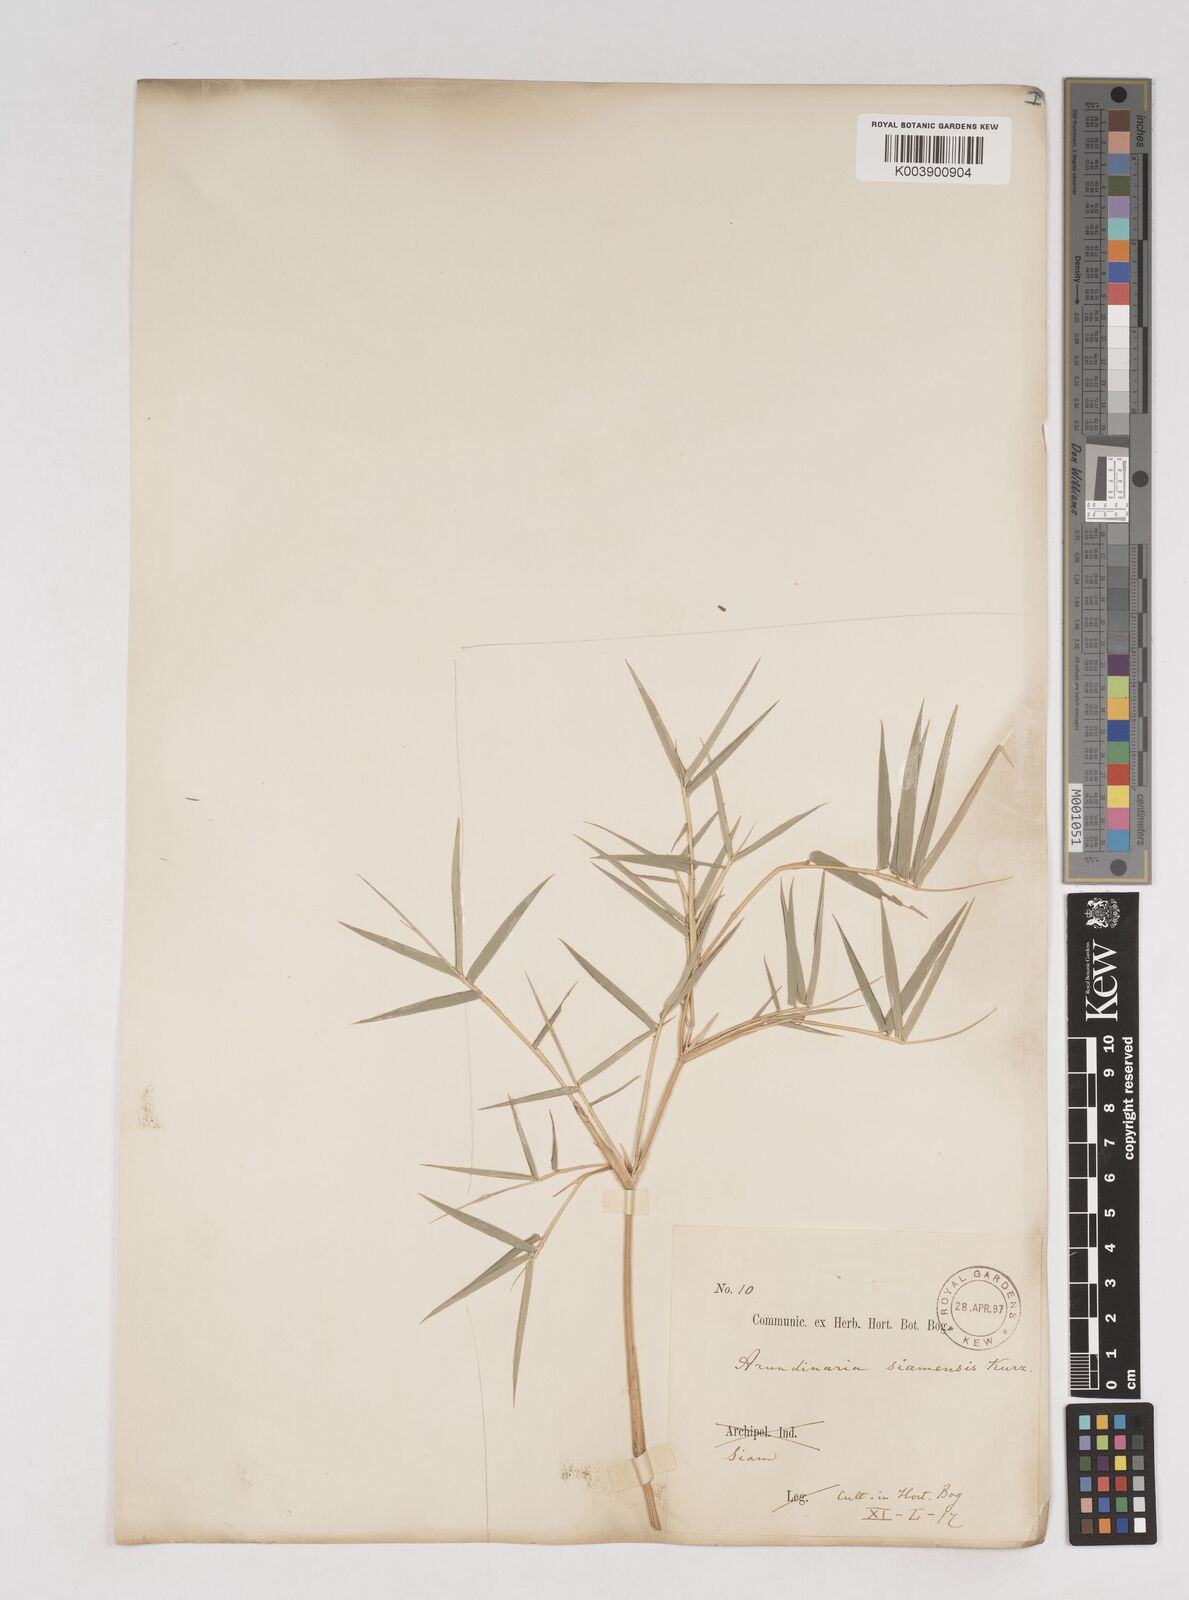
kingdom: Plantae
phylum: Tracheophyta
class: Liliopsida
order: Poales
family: Poaceae
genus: Thyrsostachys
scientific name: Thyrsostachys siamensis
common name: Thailand bamboo
